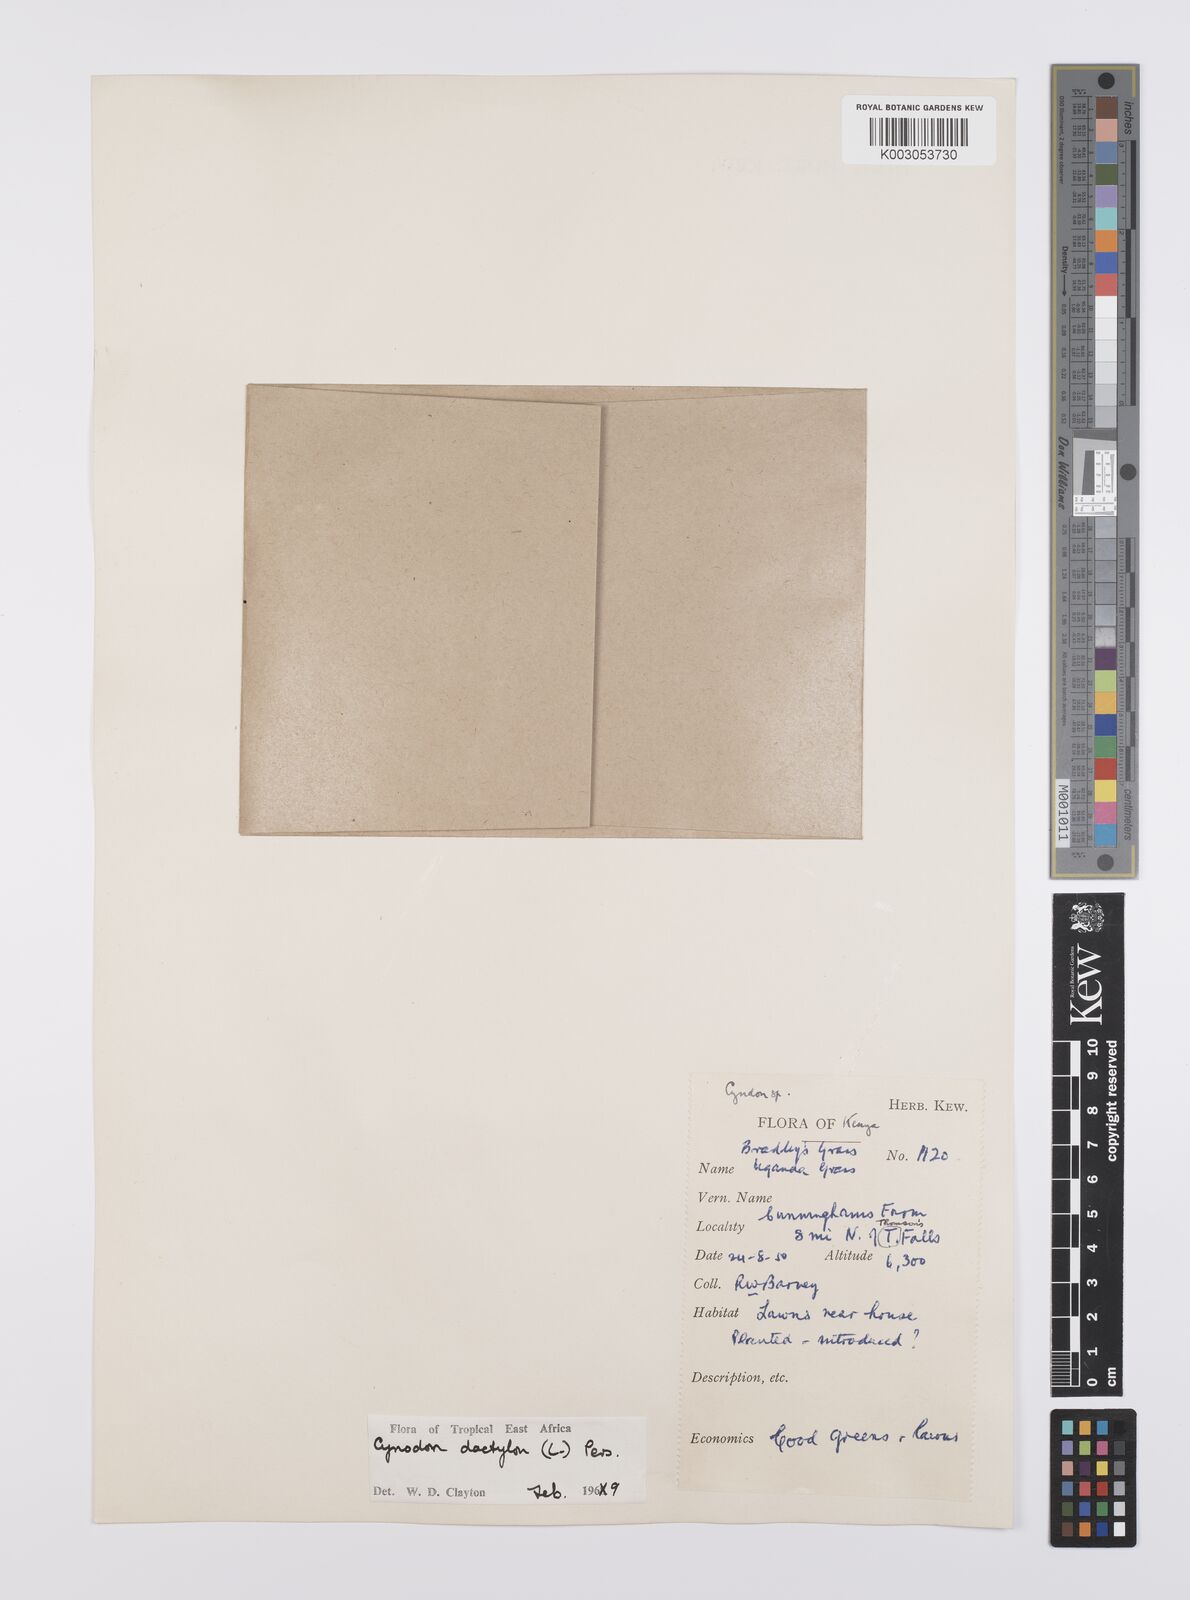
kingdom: Plantae
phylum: Tracheophyta
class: Liliopsida
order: Poales
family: Poaceae
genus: Cynodon
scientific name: Cynodon dactylon
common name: Bermuda grass
